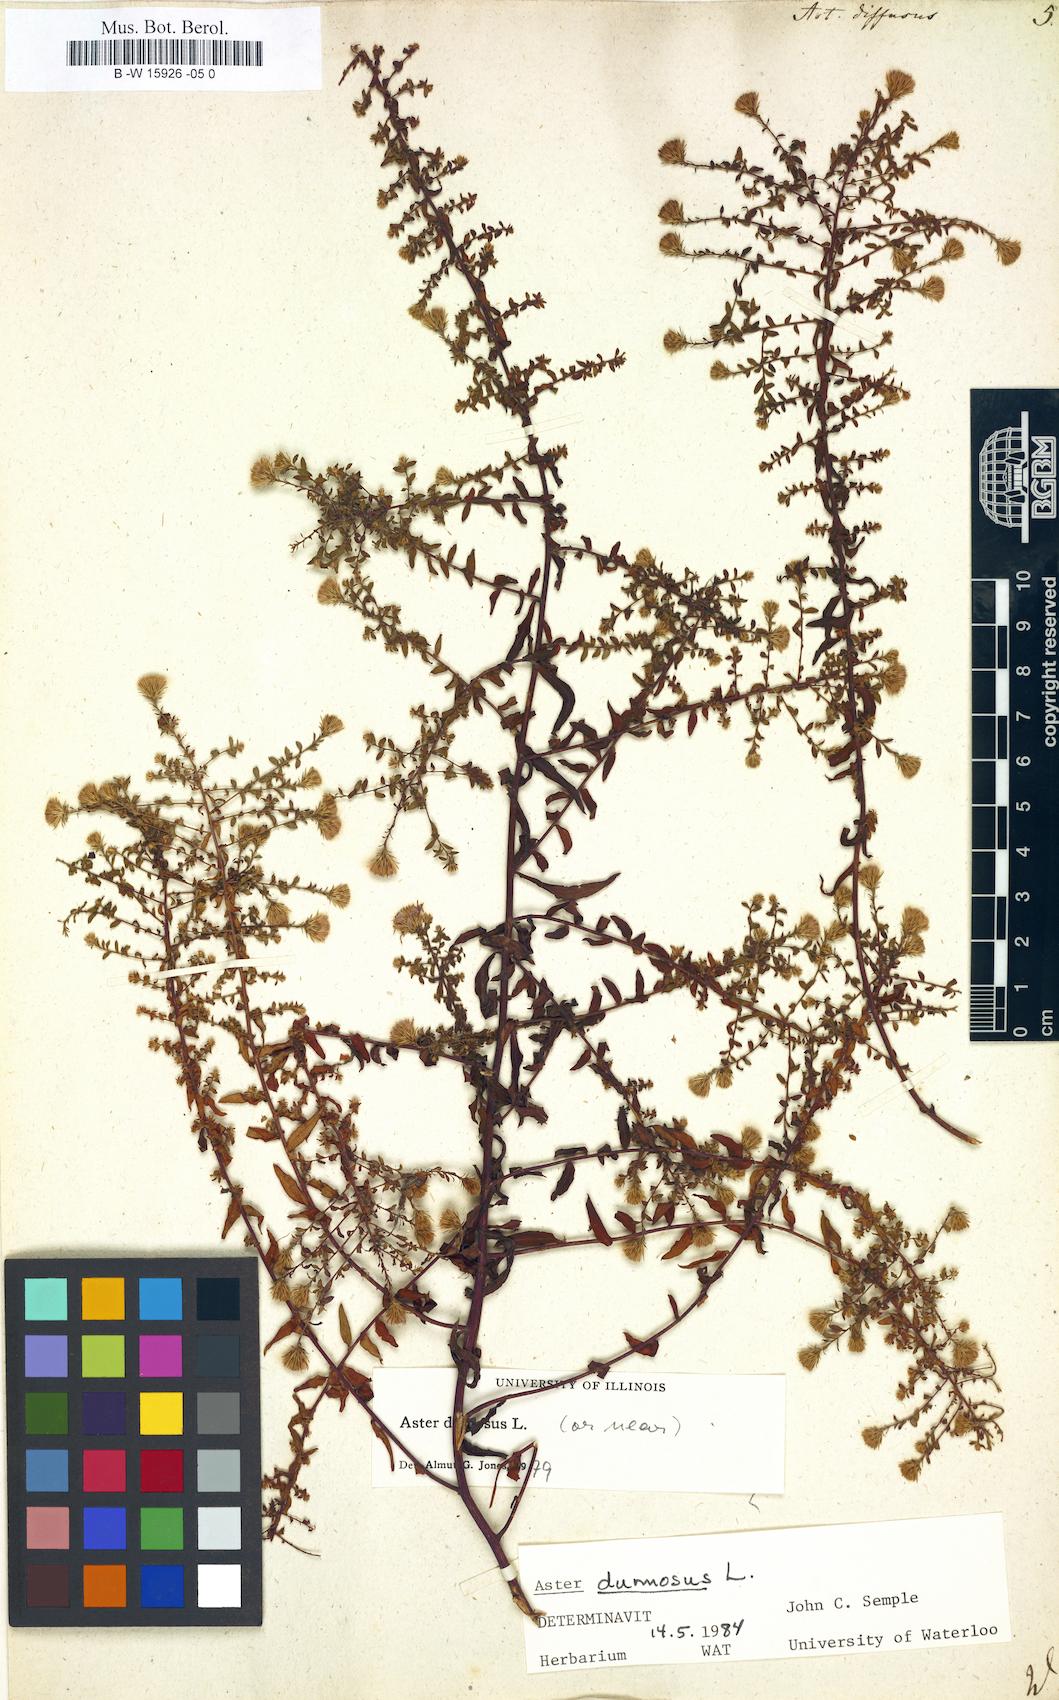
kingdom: Plantae
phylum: Tracheophyta
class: Magnoliopsida
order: Asterales
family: Asteraceae
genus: Aster
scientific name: Aster diffusus
